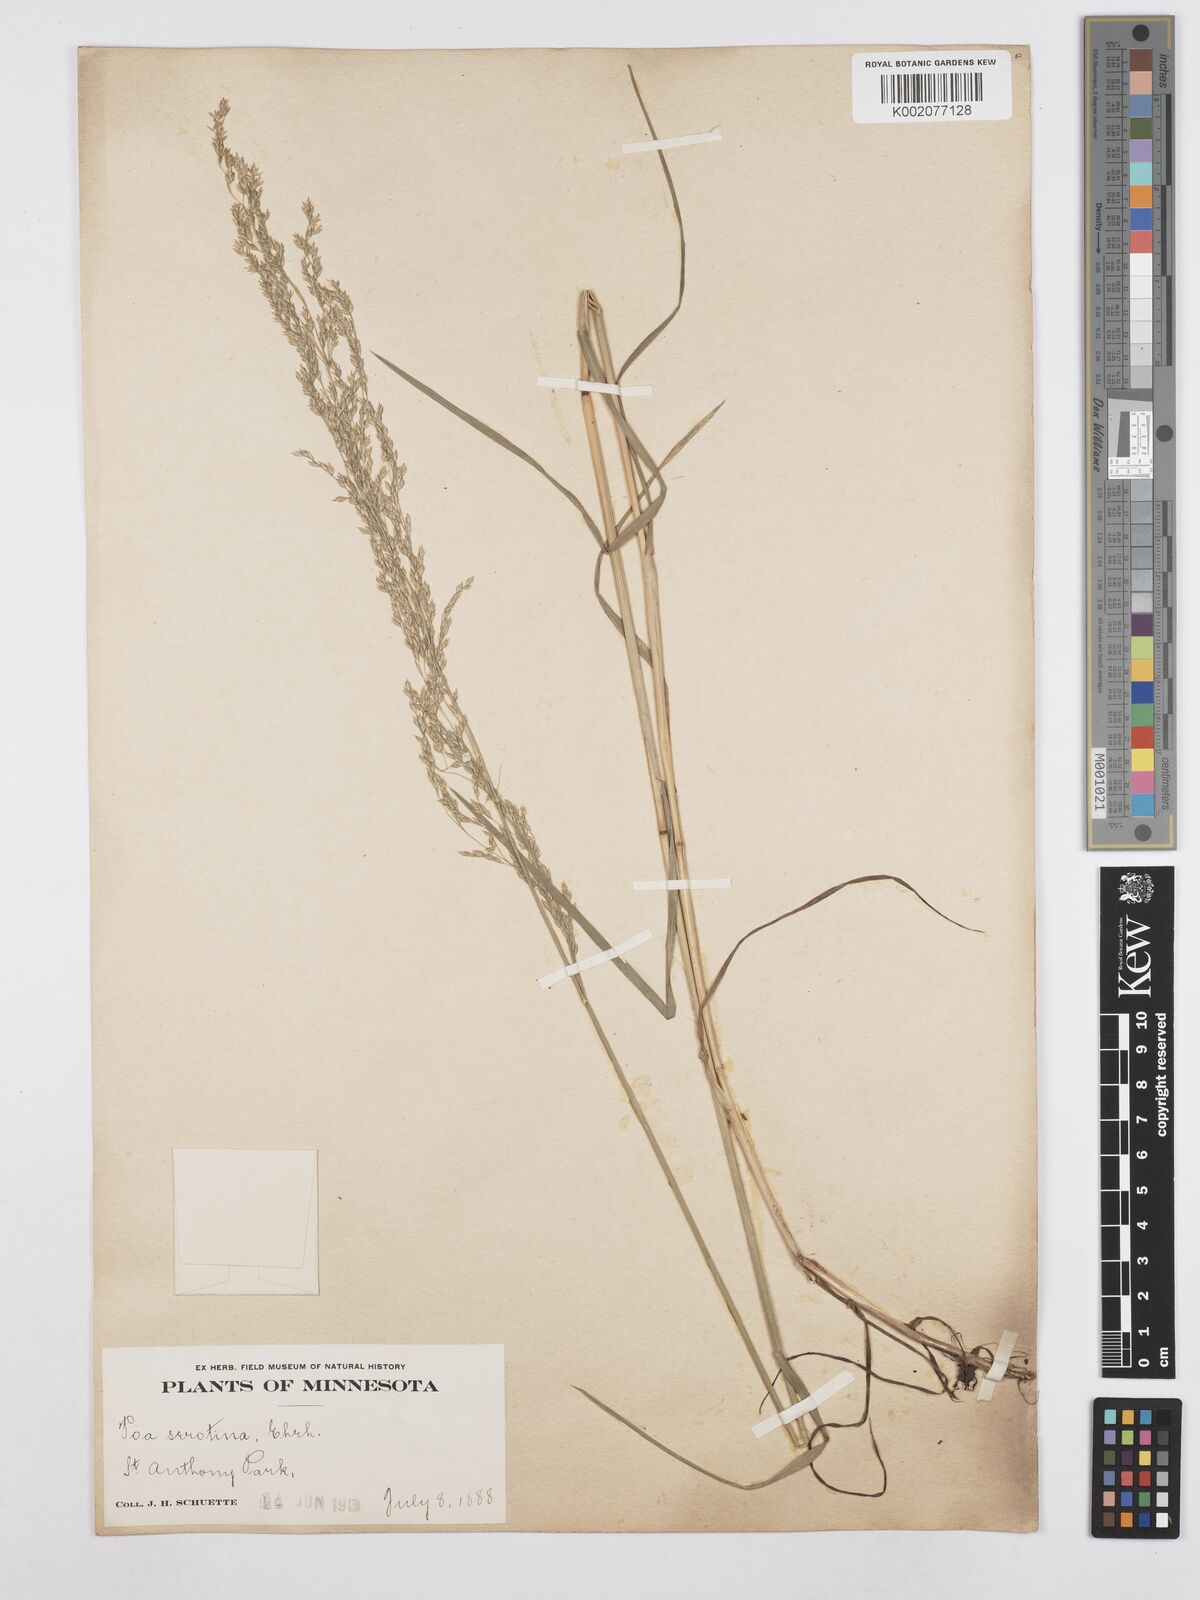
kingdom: Plantae
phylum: Tracheophyta
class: Liliopsida
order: Poales
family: Poaceae
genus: Poa
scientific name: Poa palustris
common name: Swamp meadow-grass
